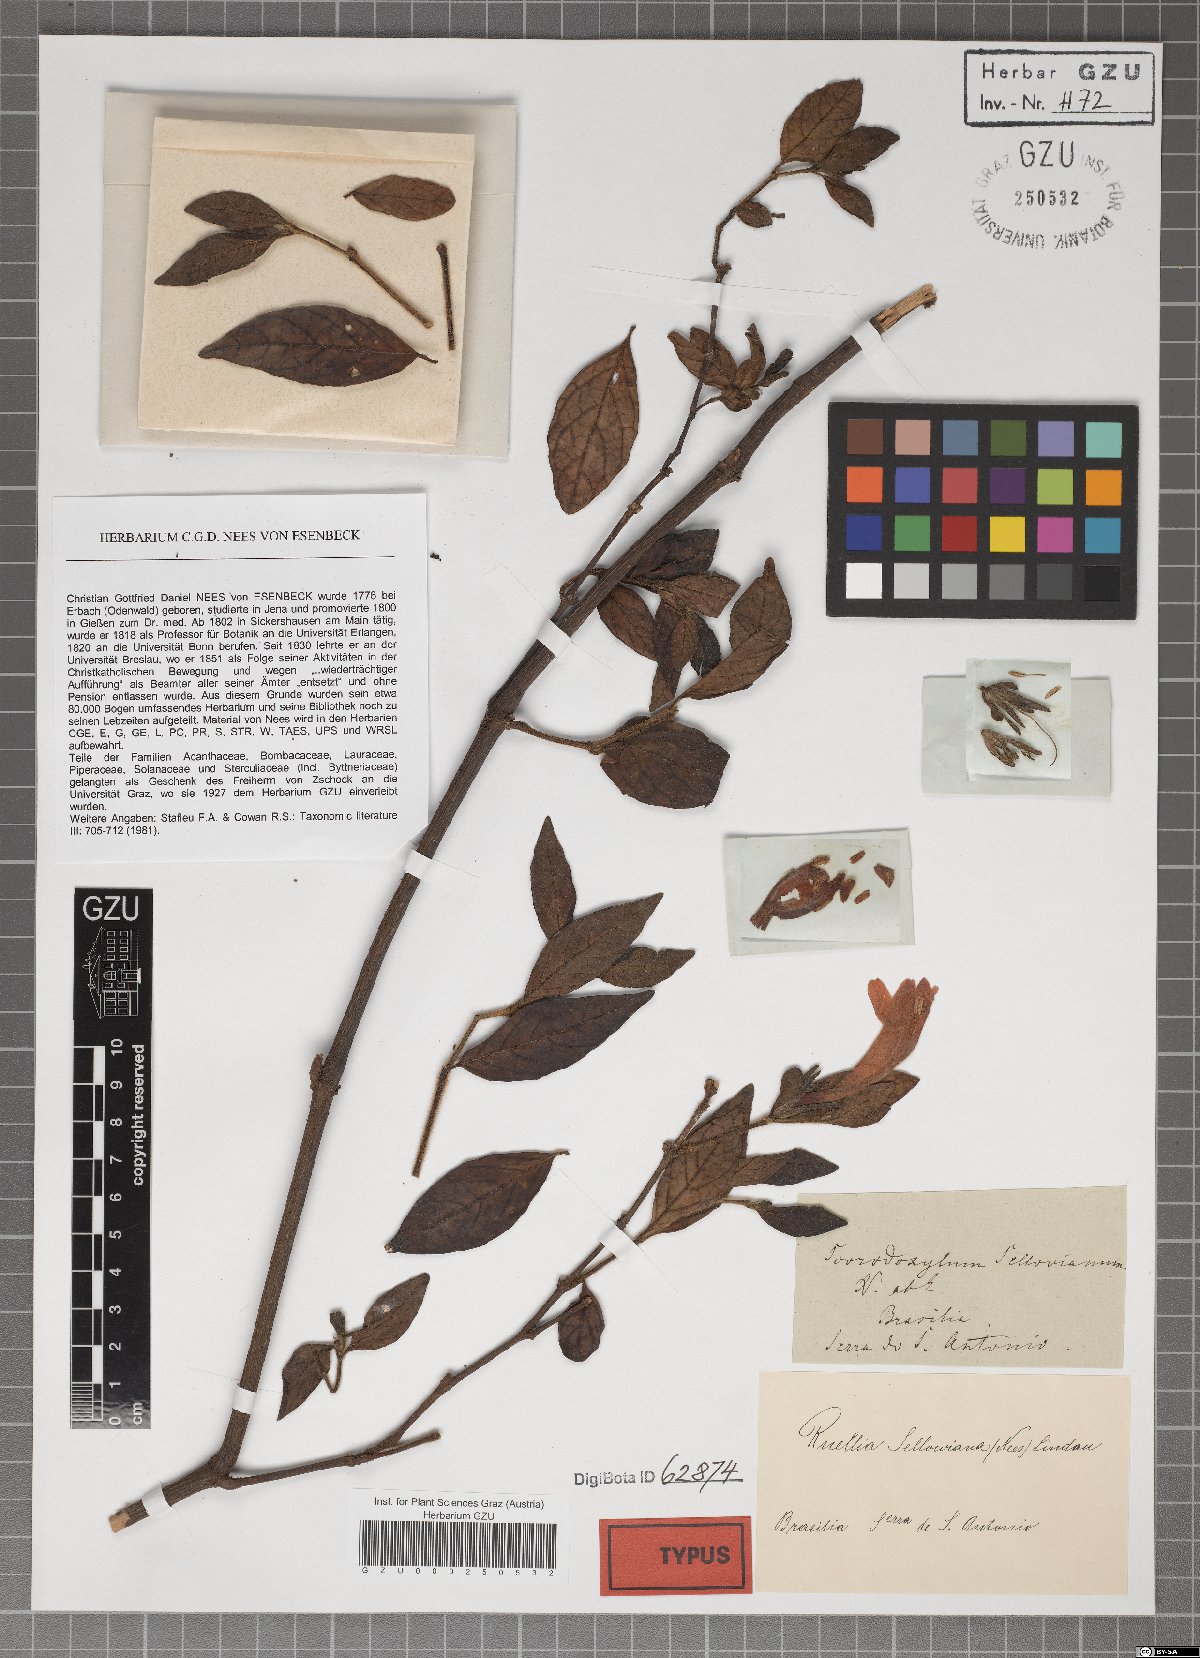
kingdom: Plantae
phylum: Tracheophyta
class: Magnoliopsida
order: Lamiales
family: Acanthaceae
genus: Ruellia
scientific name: Ruellia Stemonacanthus sellovianus
